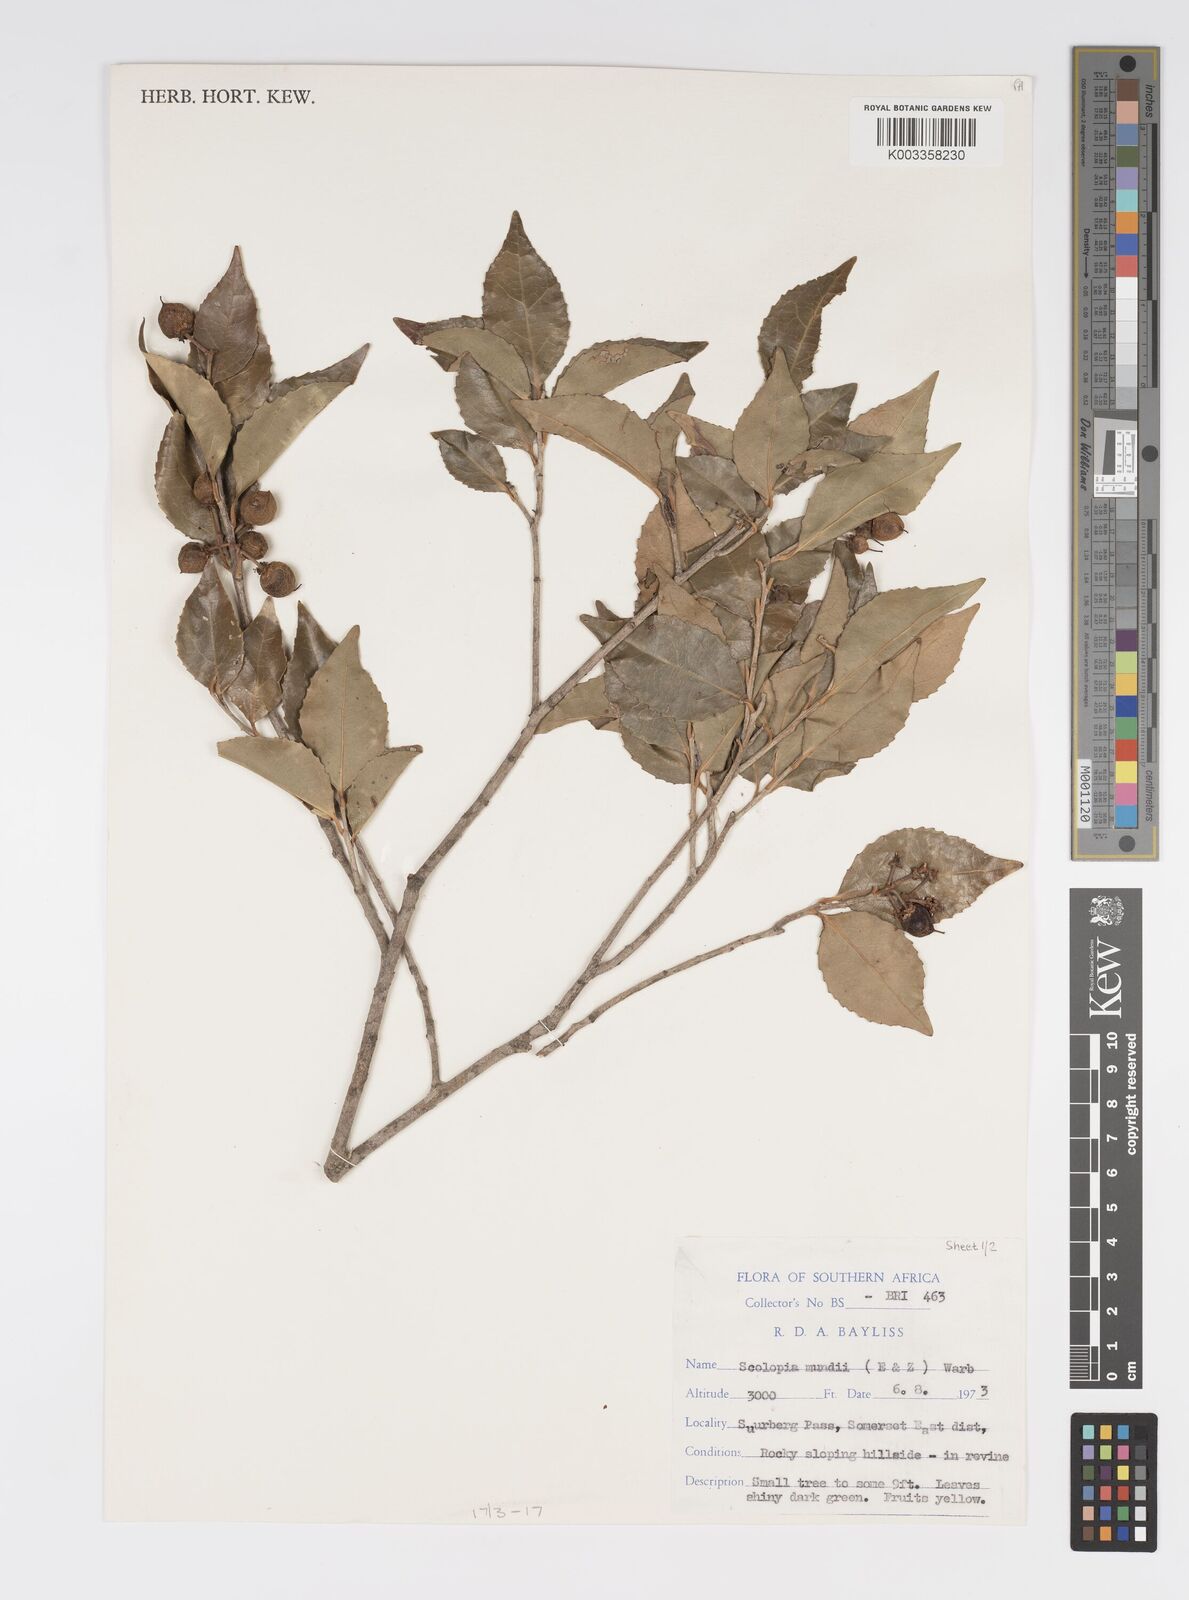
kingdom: Plantae
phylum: Tracheophyta
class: Magnoliopsida
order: Malpighiales
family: Salicaceae
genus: Scolopia
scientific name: Scolopia mundii
